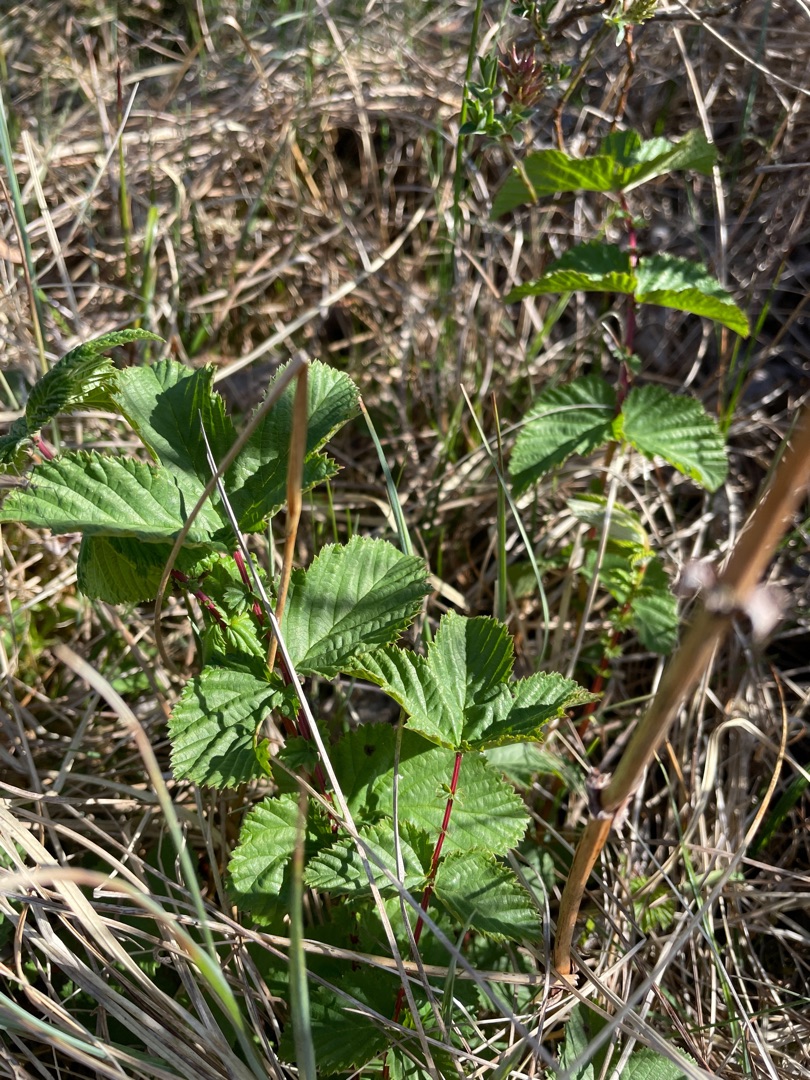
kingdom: Plantae
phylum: Tracheophyta
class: Magnoliopsida
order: Rosales
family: Rosaceae
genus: Filipendula
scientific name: Filipendula ulmaria
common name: Almindelig mjødurt
